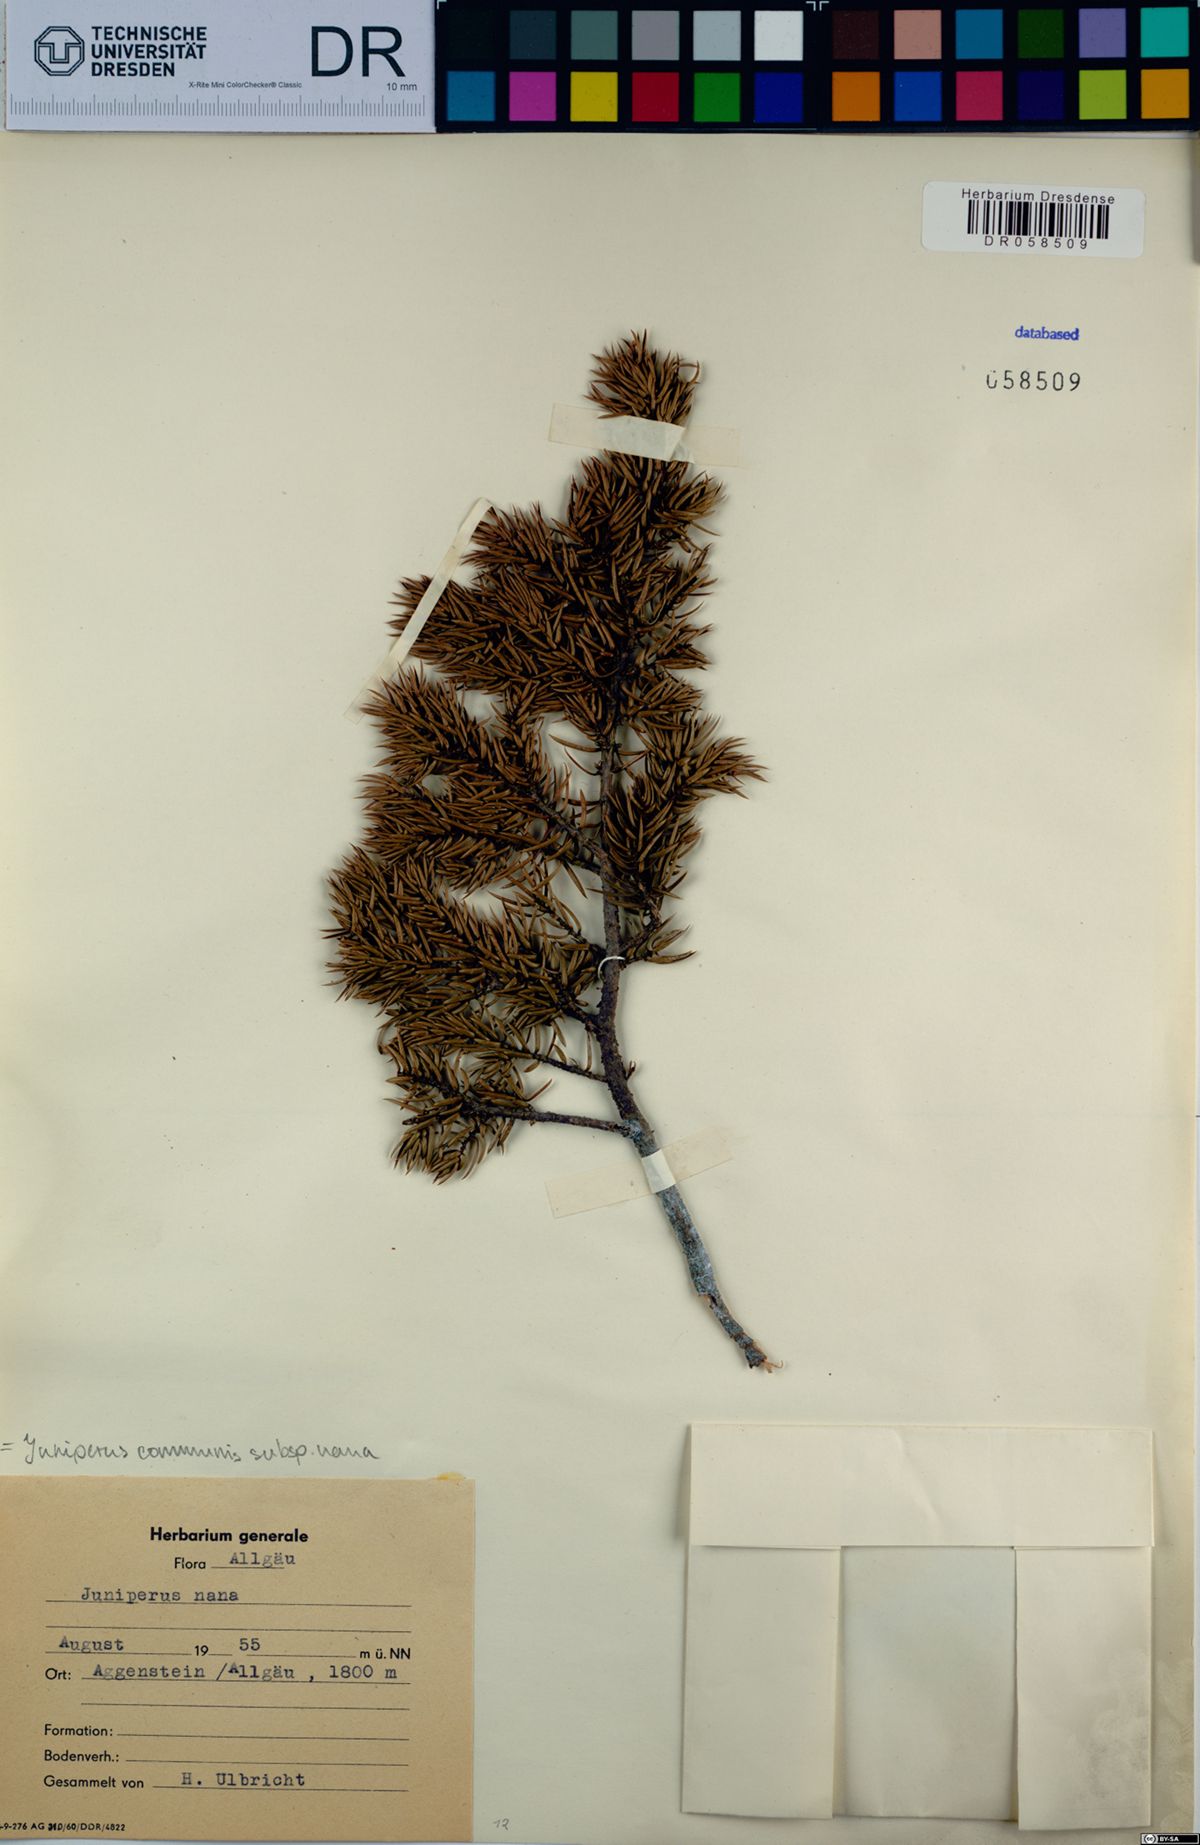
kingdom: Plantae
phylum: Tracheophyta
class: Pinopsida
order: Pinales
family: Cupressaceae
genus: Juniperus
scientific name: Juniperus communis
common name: Common juniper
